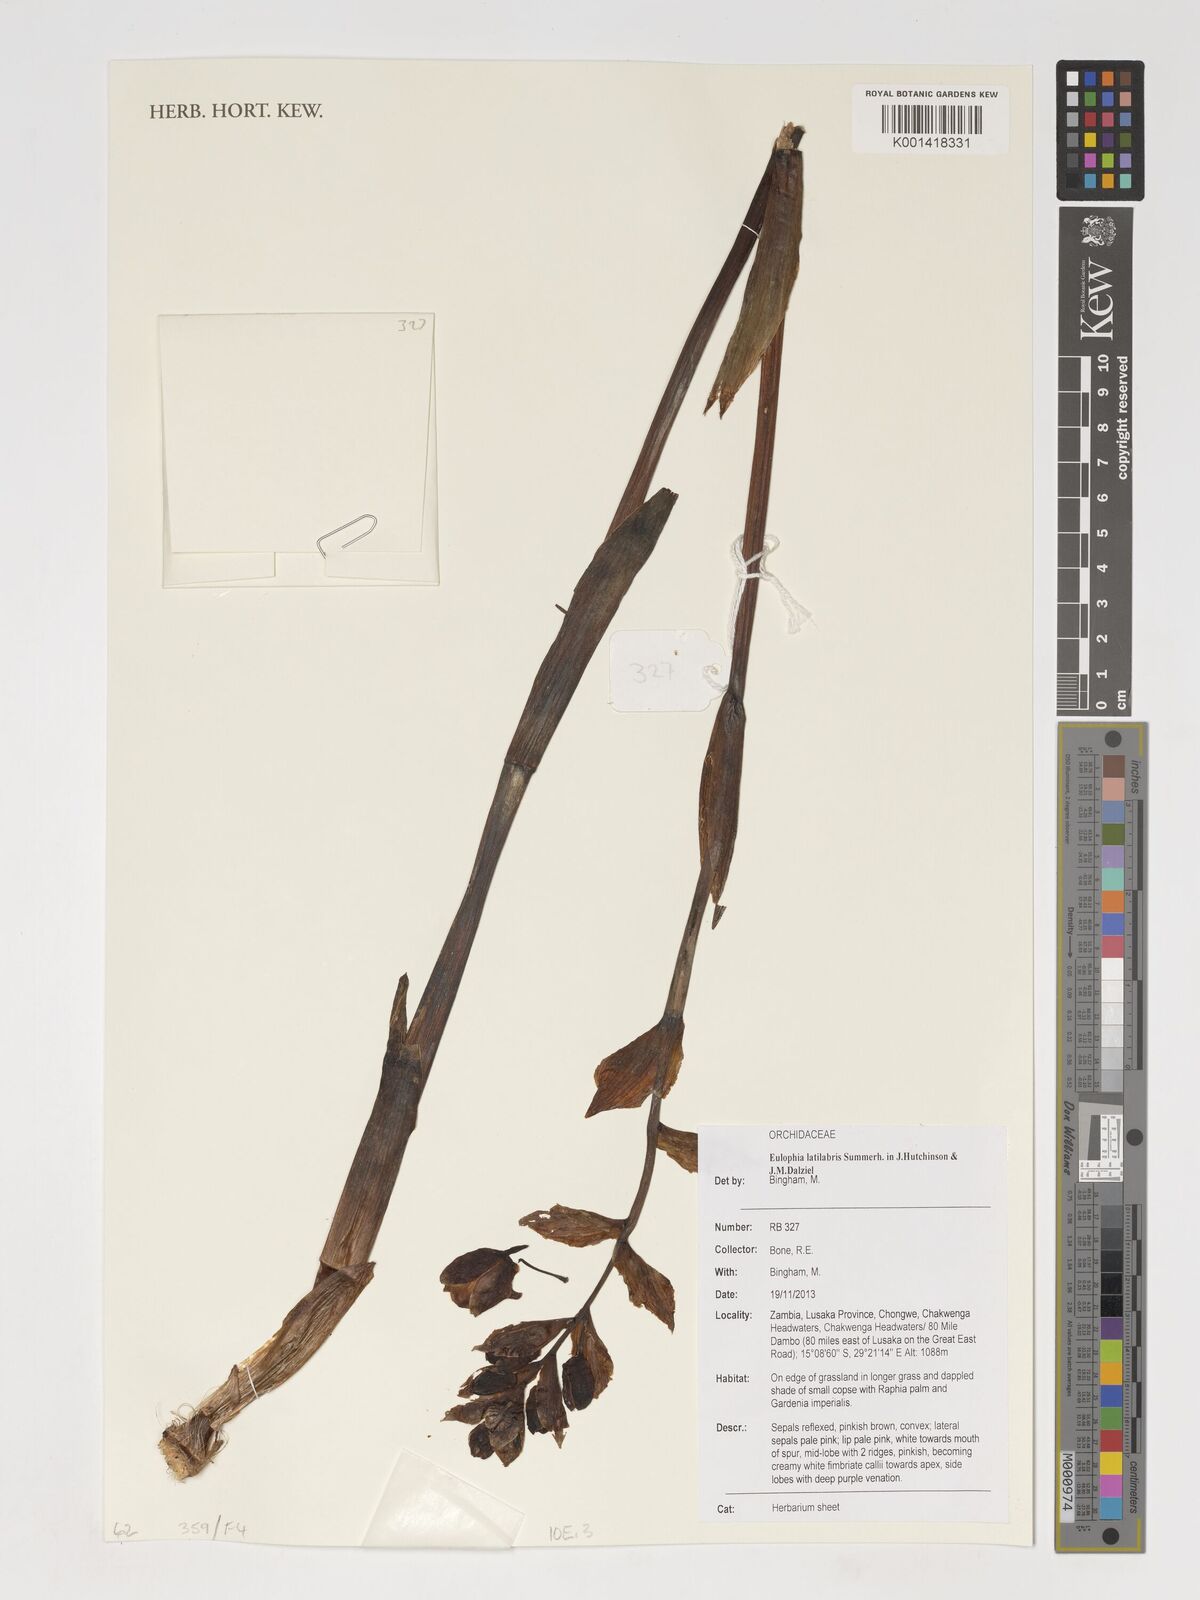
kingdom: Plantae
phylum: Tracheophyta
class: Liliopsida
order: Asparagales
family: Orchidaceae
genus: Eulophia
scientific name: Eulophia latilabris
